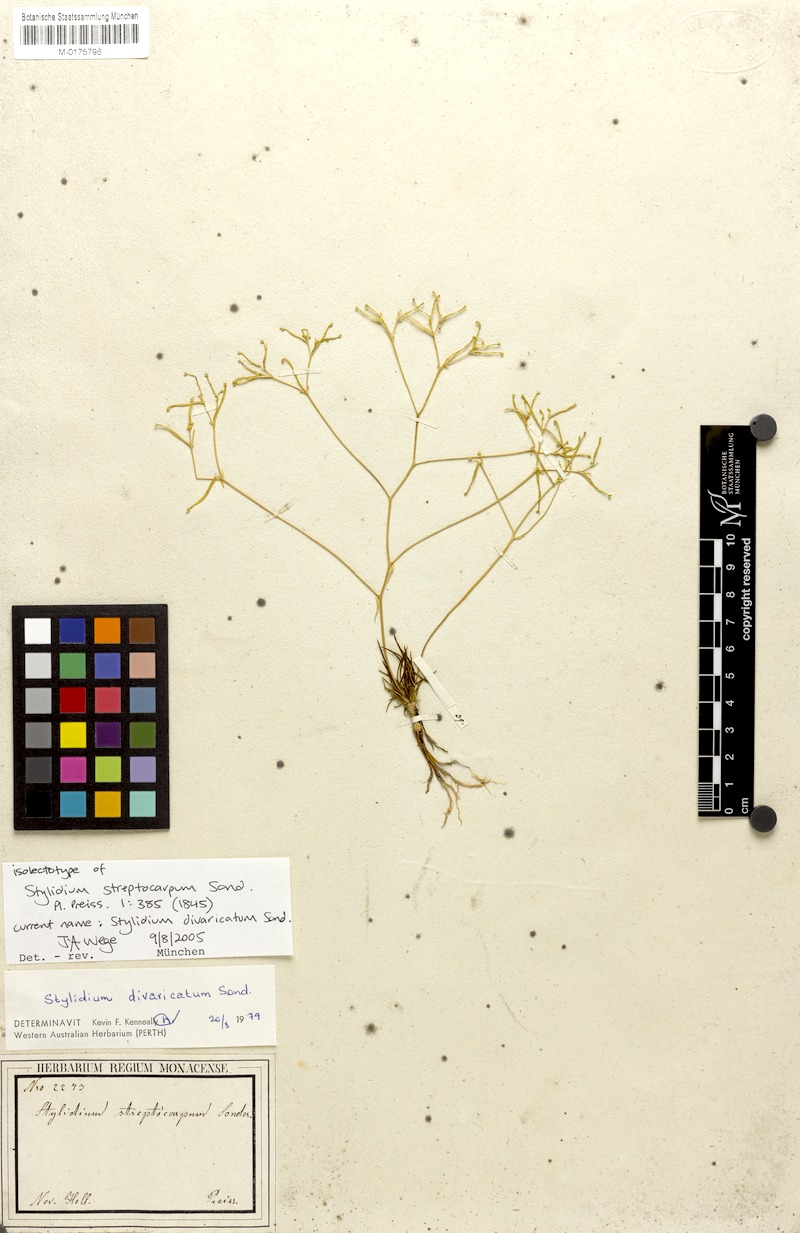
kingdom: Plantae
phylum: Tracheophyta
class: Magnoliopsida
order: Asterales
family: Stylidiaceae
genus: Stylidium
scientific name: Stylidium divaricatum
